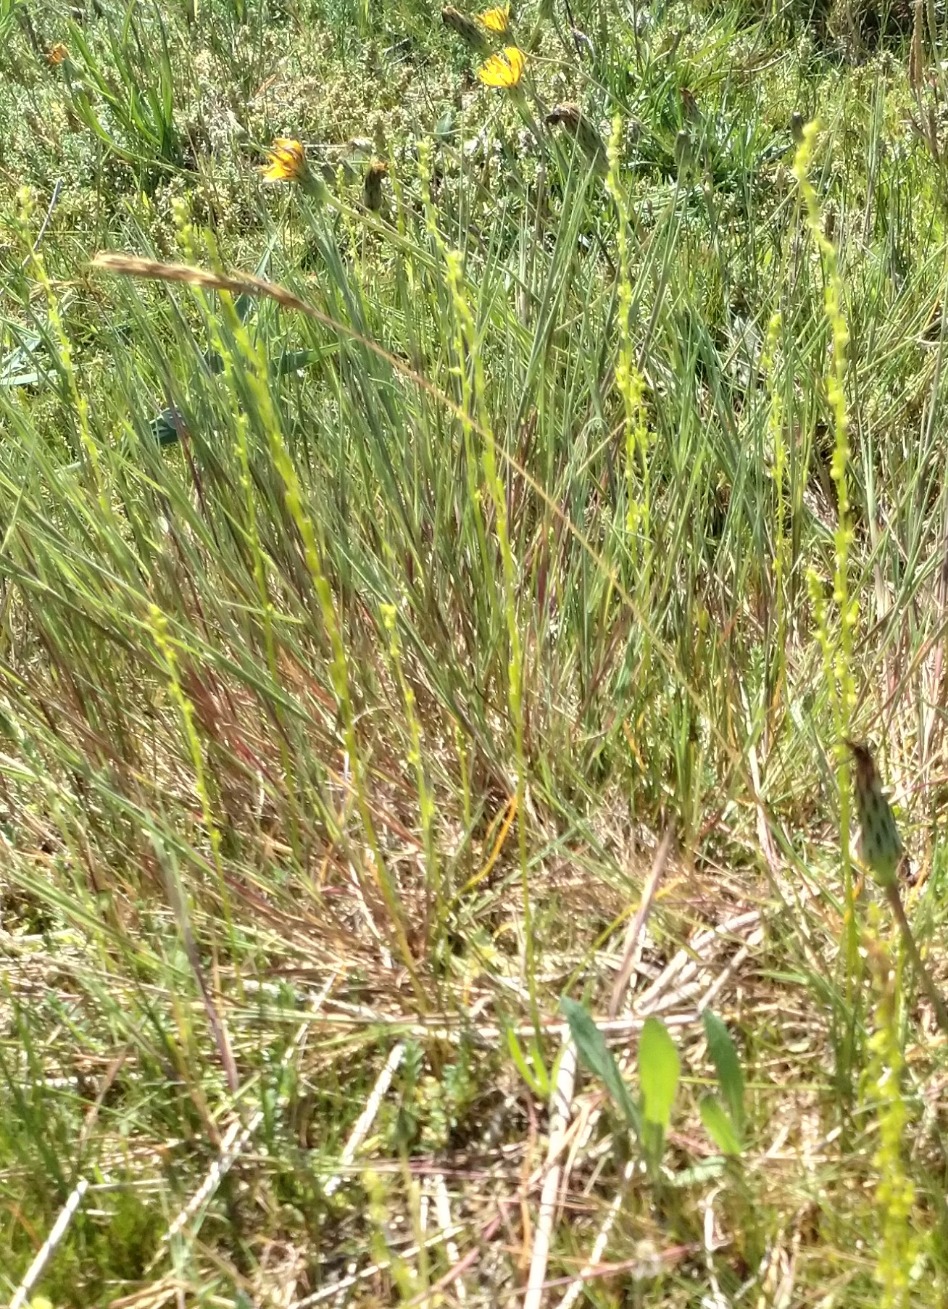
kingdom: Plantae
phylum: Tracheophyta
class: Liliopsida
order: Alismatales
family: Juncaginaceae
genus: Triglochin
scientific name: Triglochin palustris
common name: Kær-trehage
